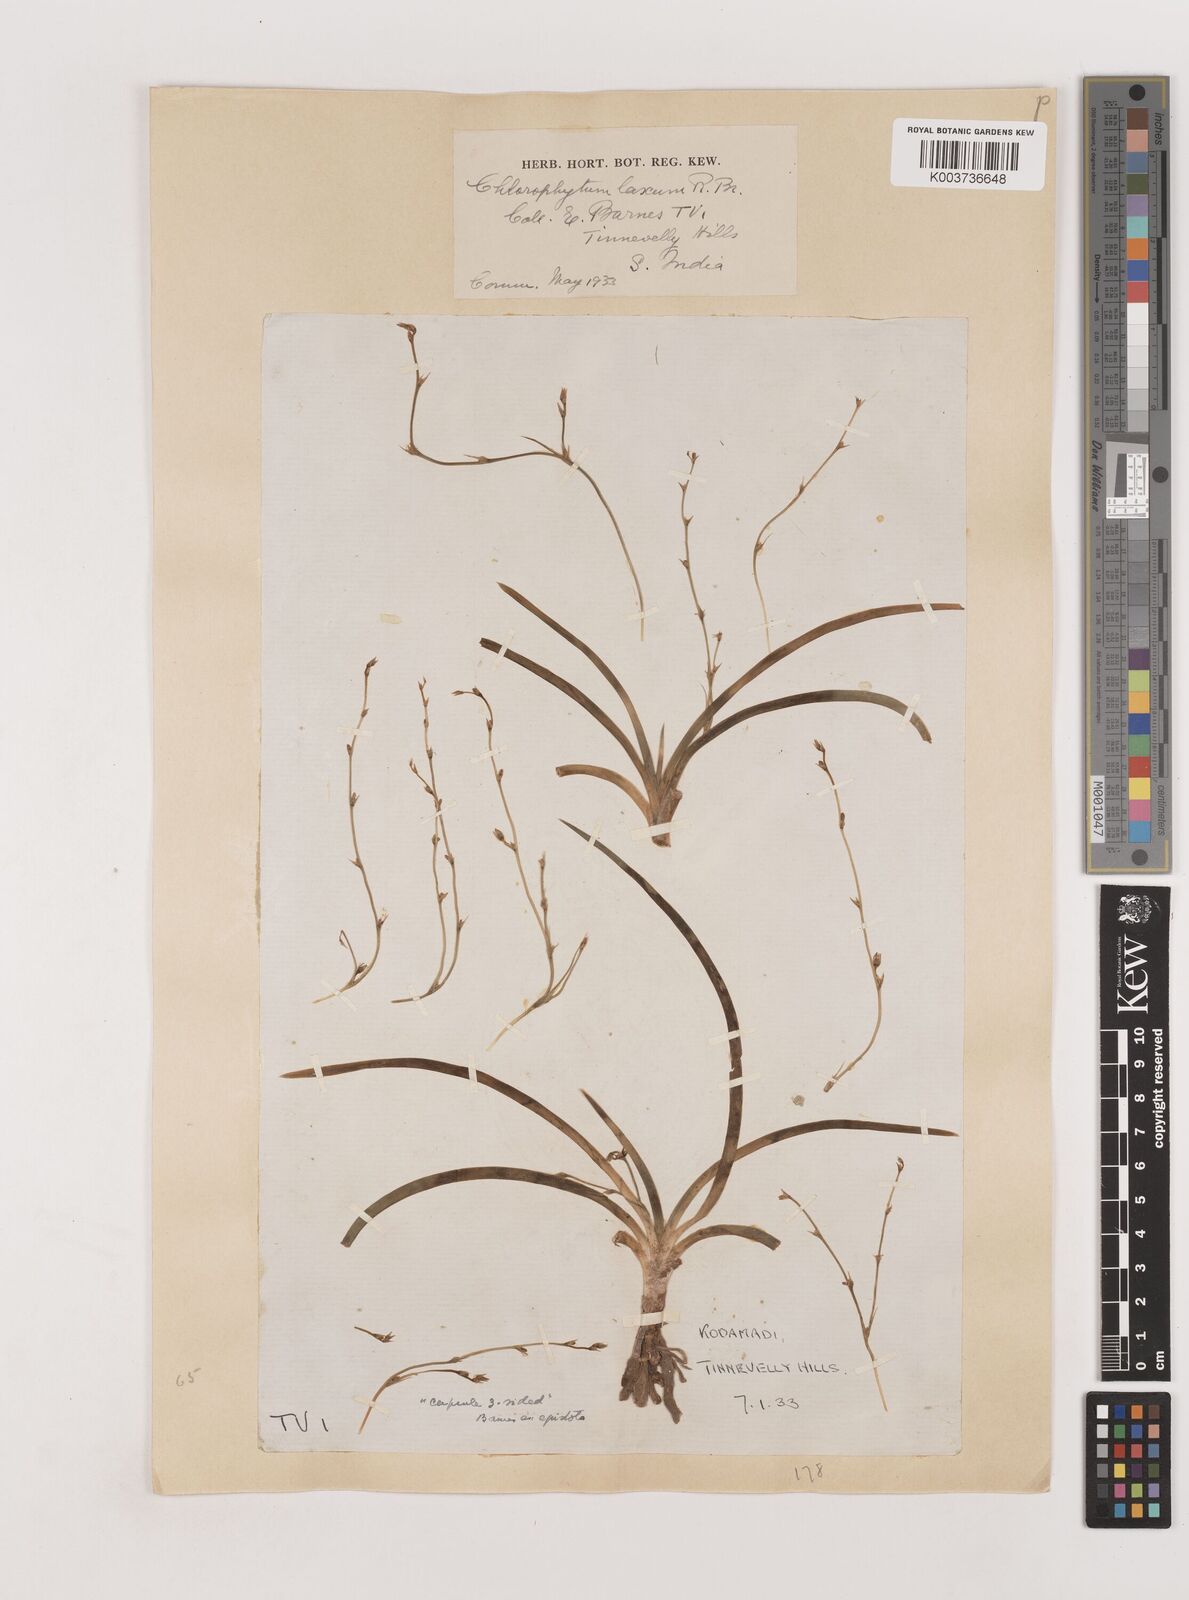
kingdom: Plantae
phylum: Tracheophyta
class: Liliopsida
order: Asparagales
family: Asparagaceae
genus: Chlorophytum
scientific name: Chlorophytum laxum
